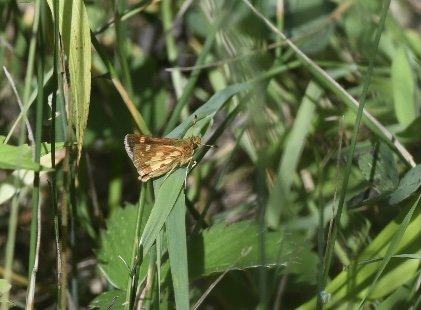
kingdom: Animalia
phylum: Arthropoda
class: Insecta
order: Lepidoptera
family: Hesperiidae
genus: Polites
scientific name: Polites coras
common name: Peck's Skipper
